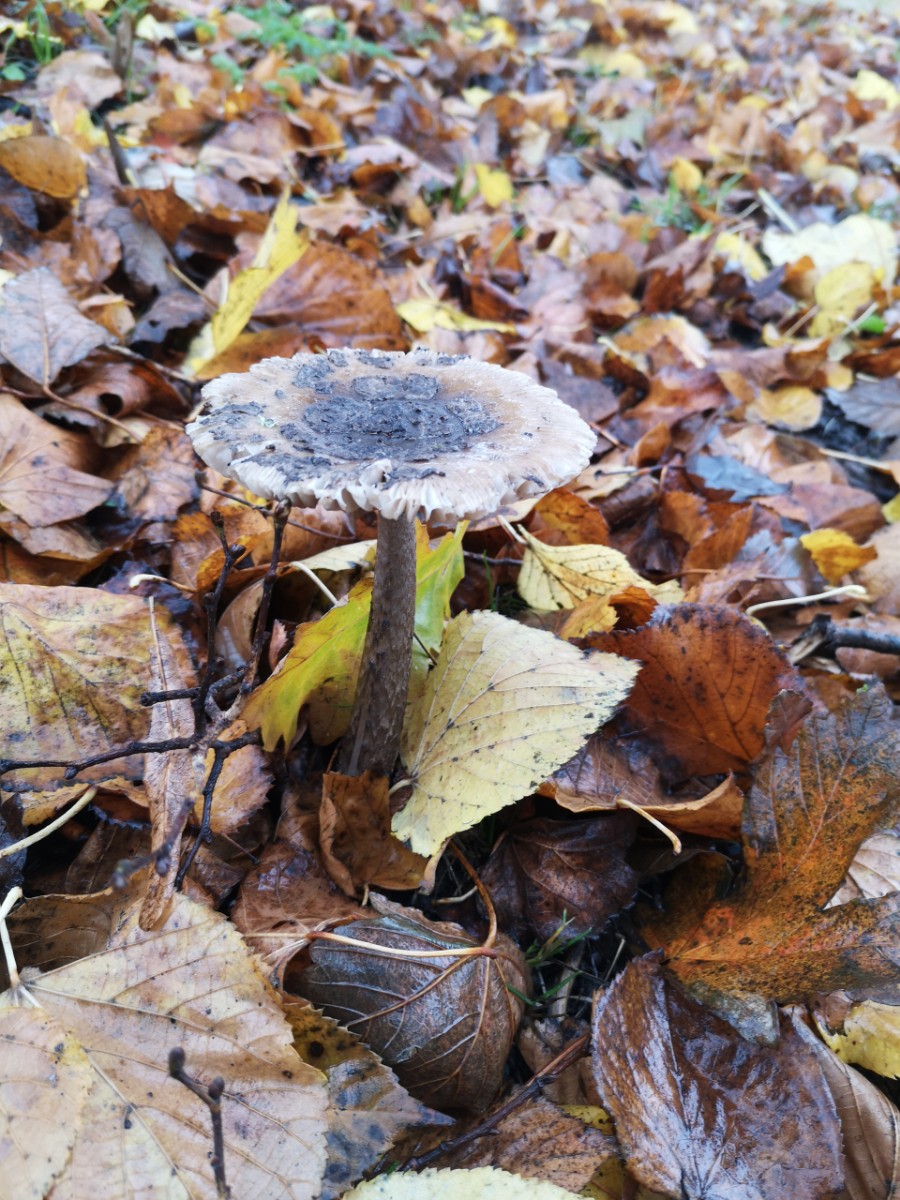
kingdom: Fungi
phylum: Basidiomycota
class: Agaricomycetes
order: Agaricales
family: Amanitaceae
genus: Amanita
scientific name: Amanita ceciliae
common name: stor kam-fluesvamp
